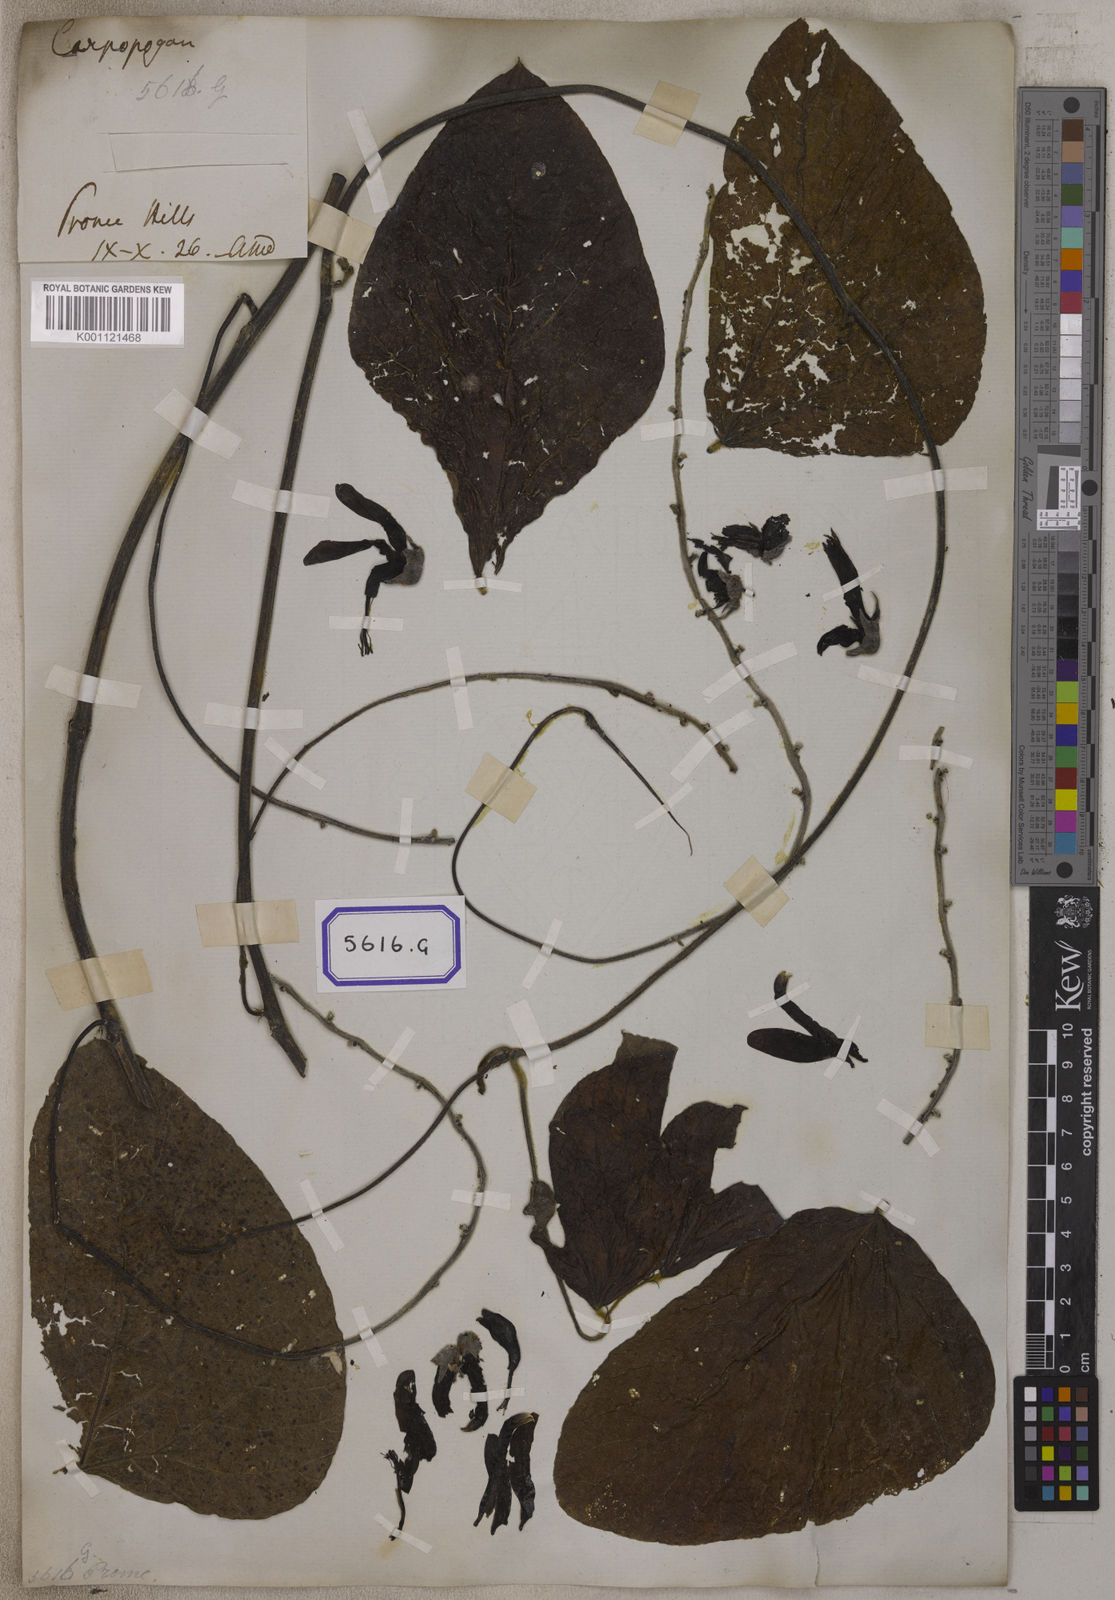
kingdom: Plantae
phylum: Tracheophyta
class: Magnoliopsida
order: Fabales
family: Fabaceae
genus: Mucuna
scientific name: Mucuna pruriens
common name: Cow-itch
